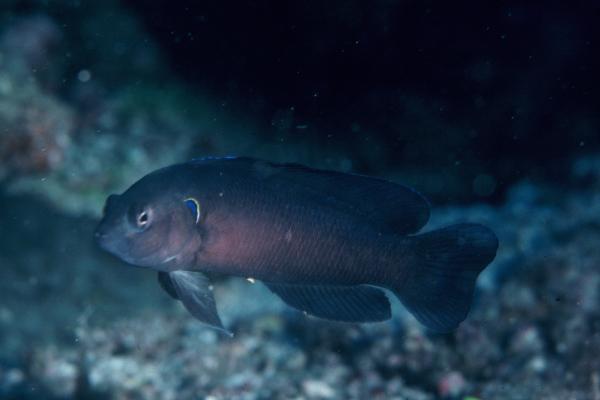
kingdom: Animalia
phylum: Chordata
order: Perciformes
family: Pseudochromidae
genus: Pseudochromis
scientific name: Pseudochromis melas
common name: Dark dottyback
